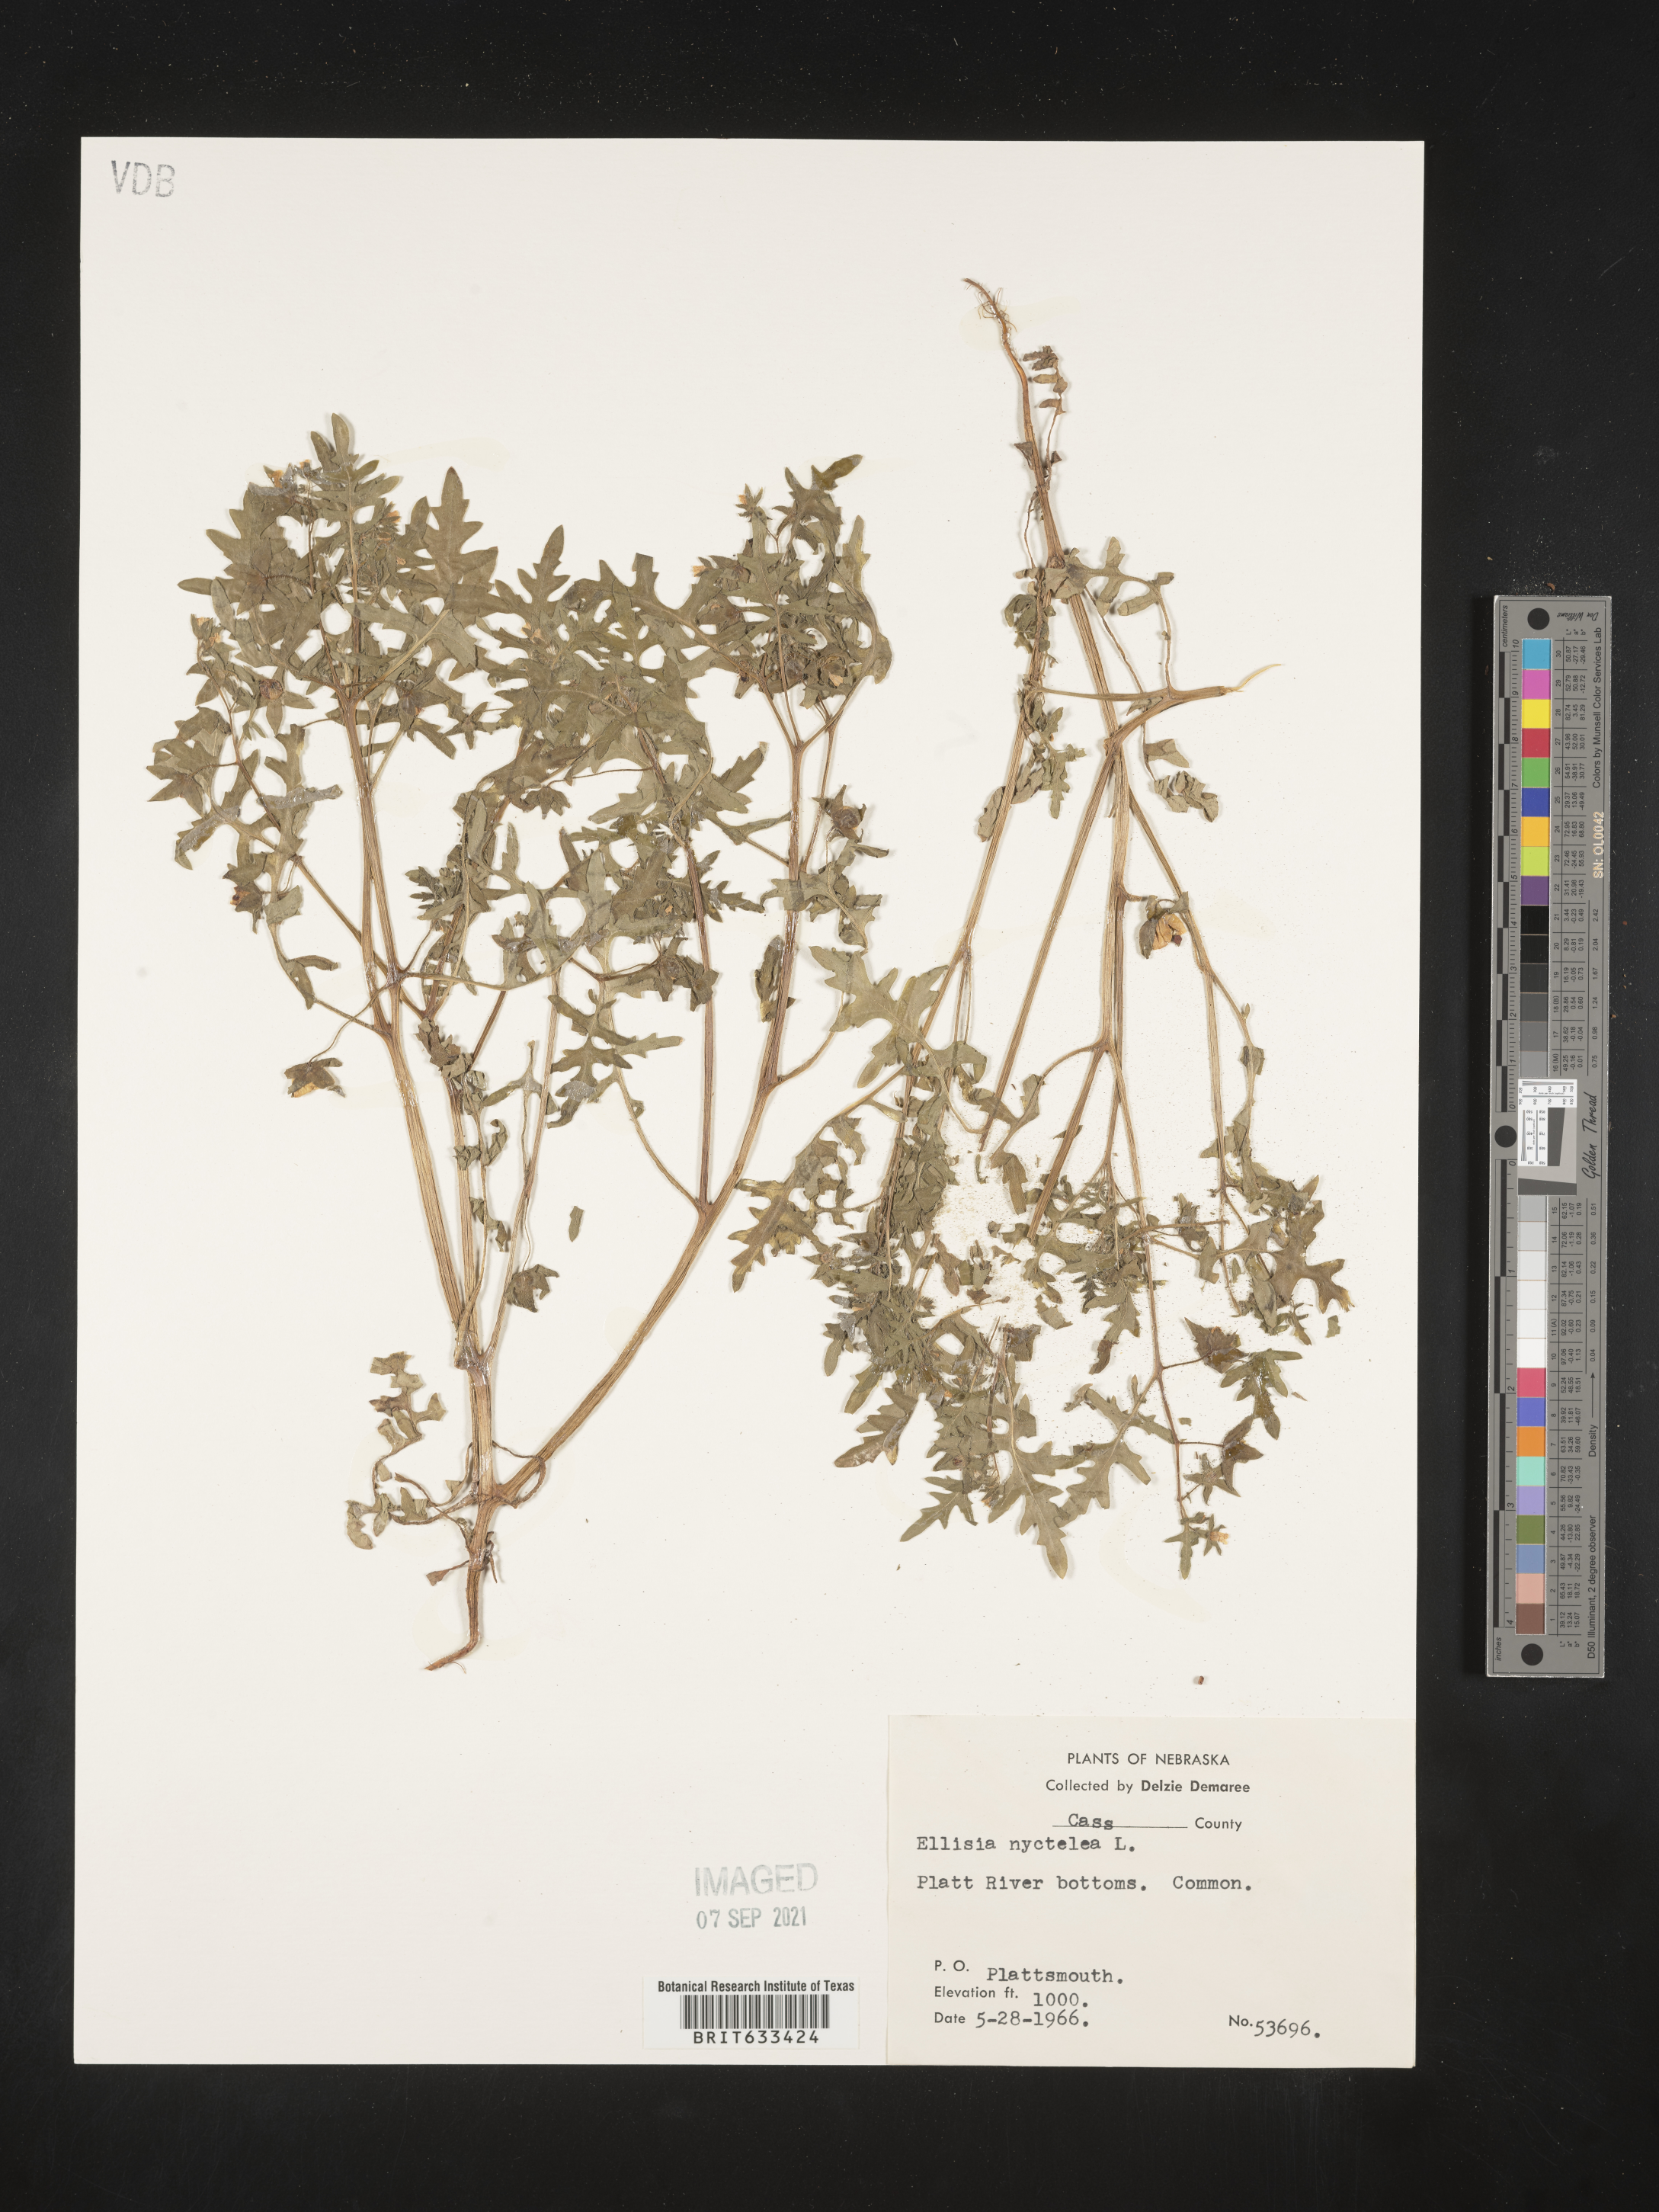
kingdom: Plantae
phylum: Tracheophyta
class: Magnoliopsida
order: Boraginales
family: Hydrophyllaceae
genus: Ellisia
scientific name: Ellisia nyctelea
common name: Aunt lucy
